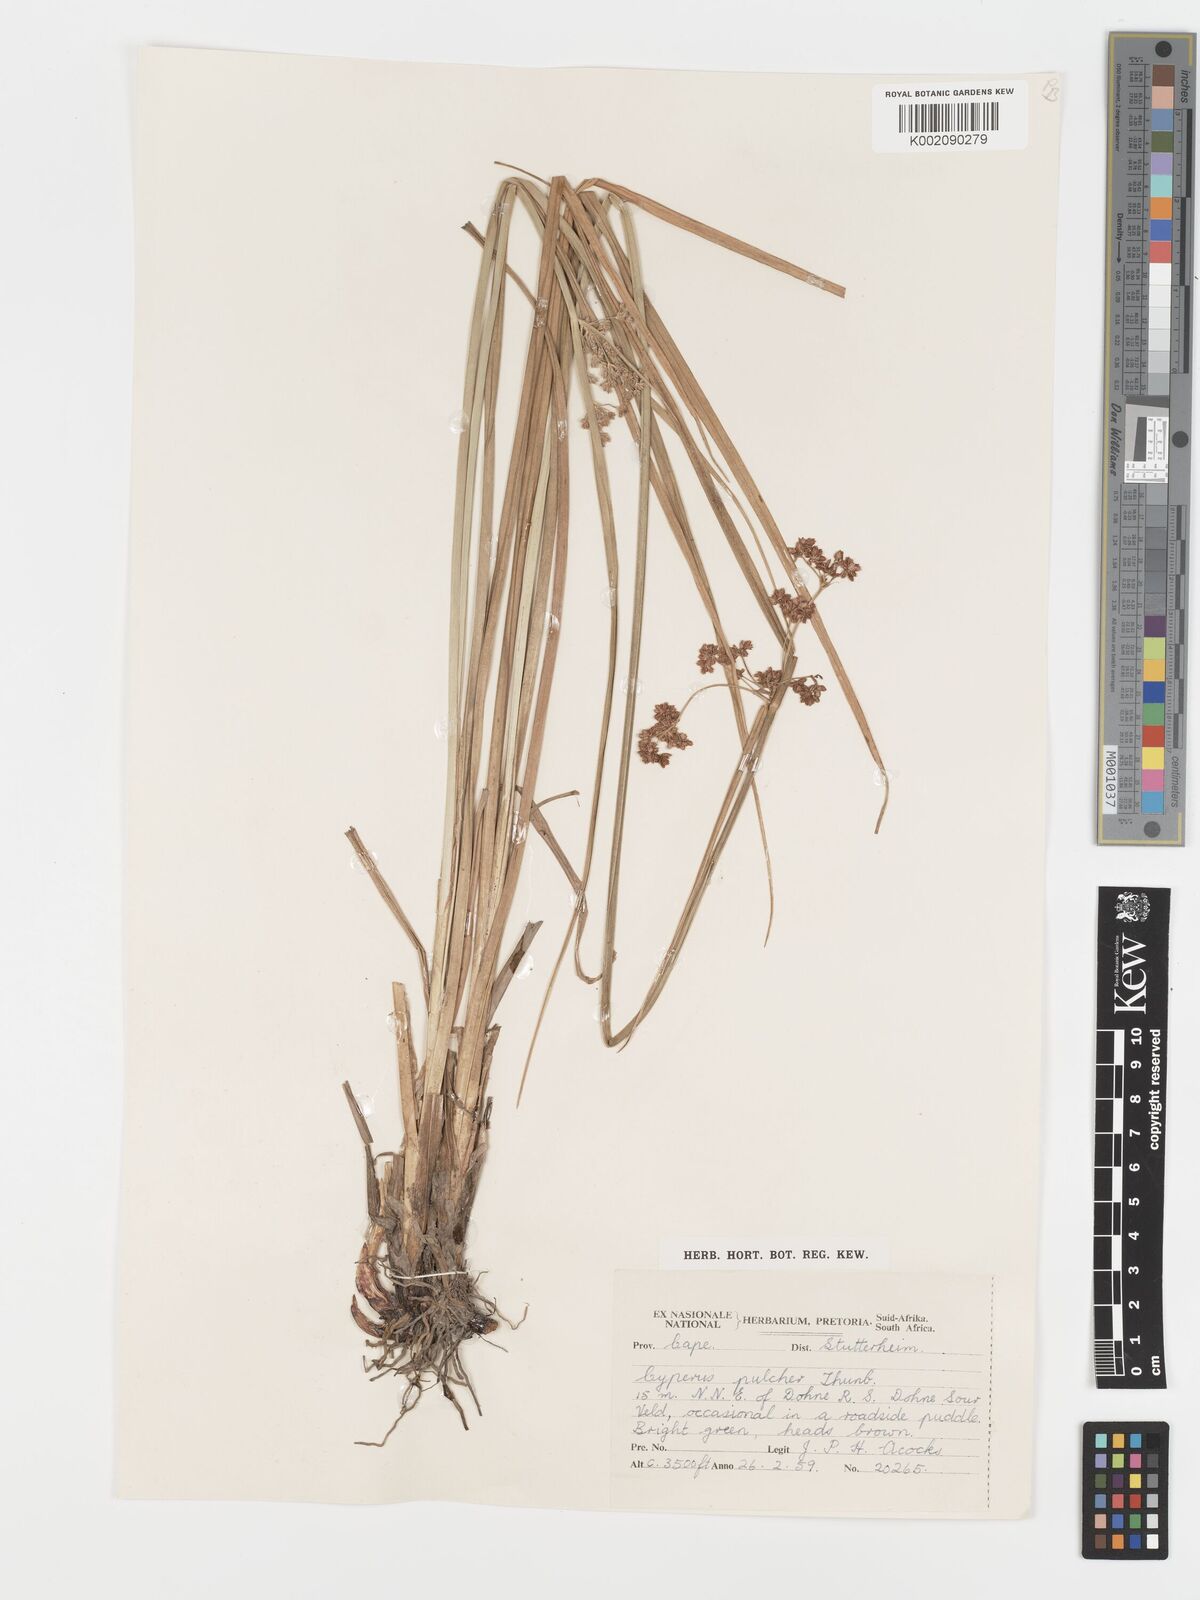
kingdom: Plantae
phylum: Tracheophyta
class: Liliopsida
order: Poales
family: Cyperaceae
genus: Cyperus
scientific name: Cyperus pulcher
